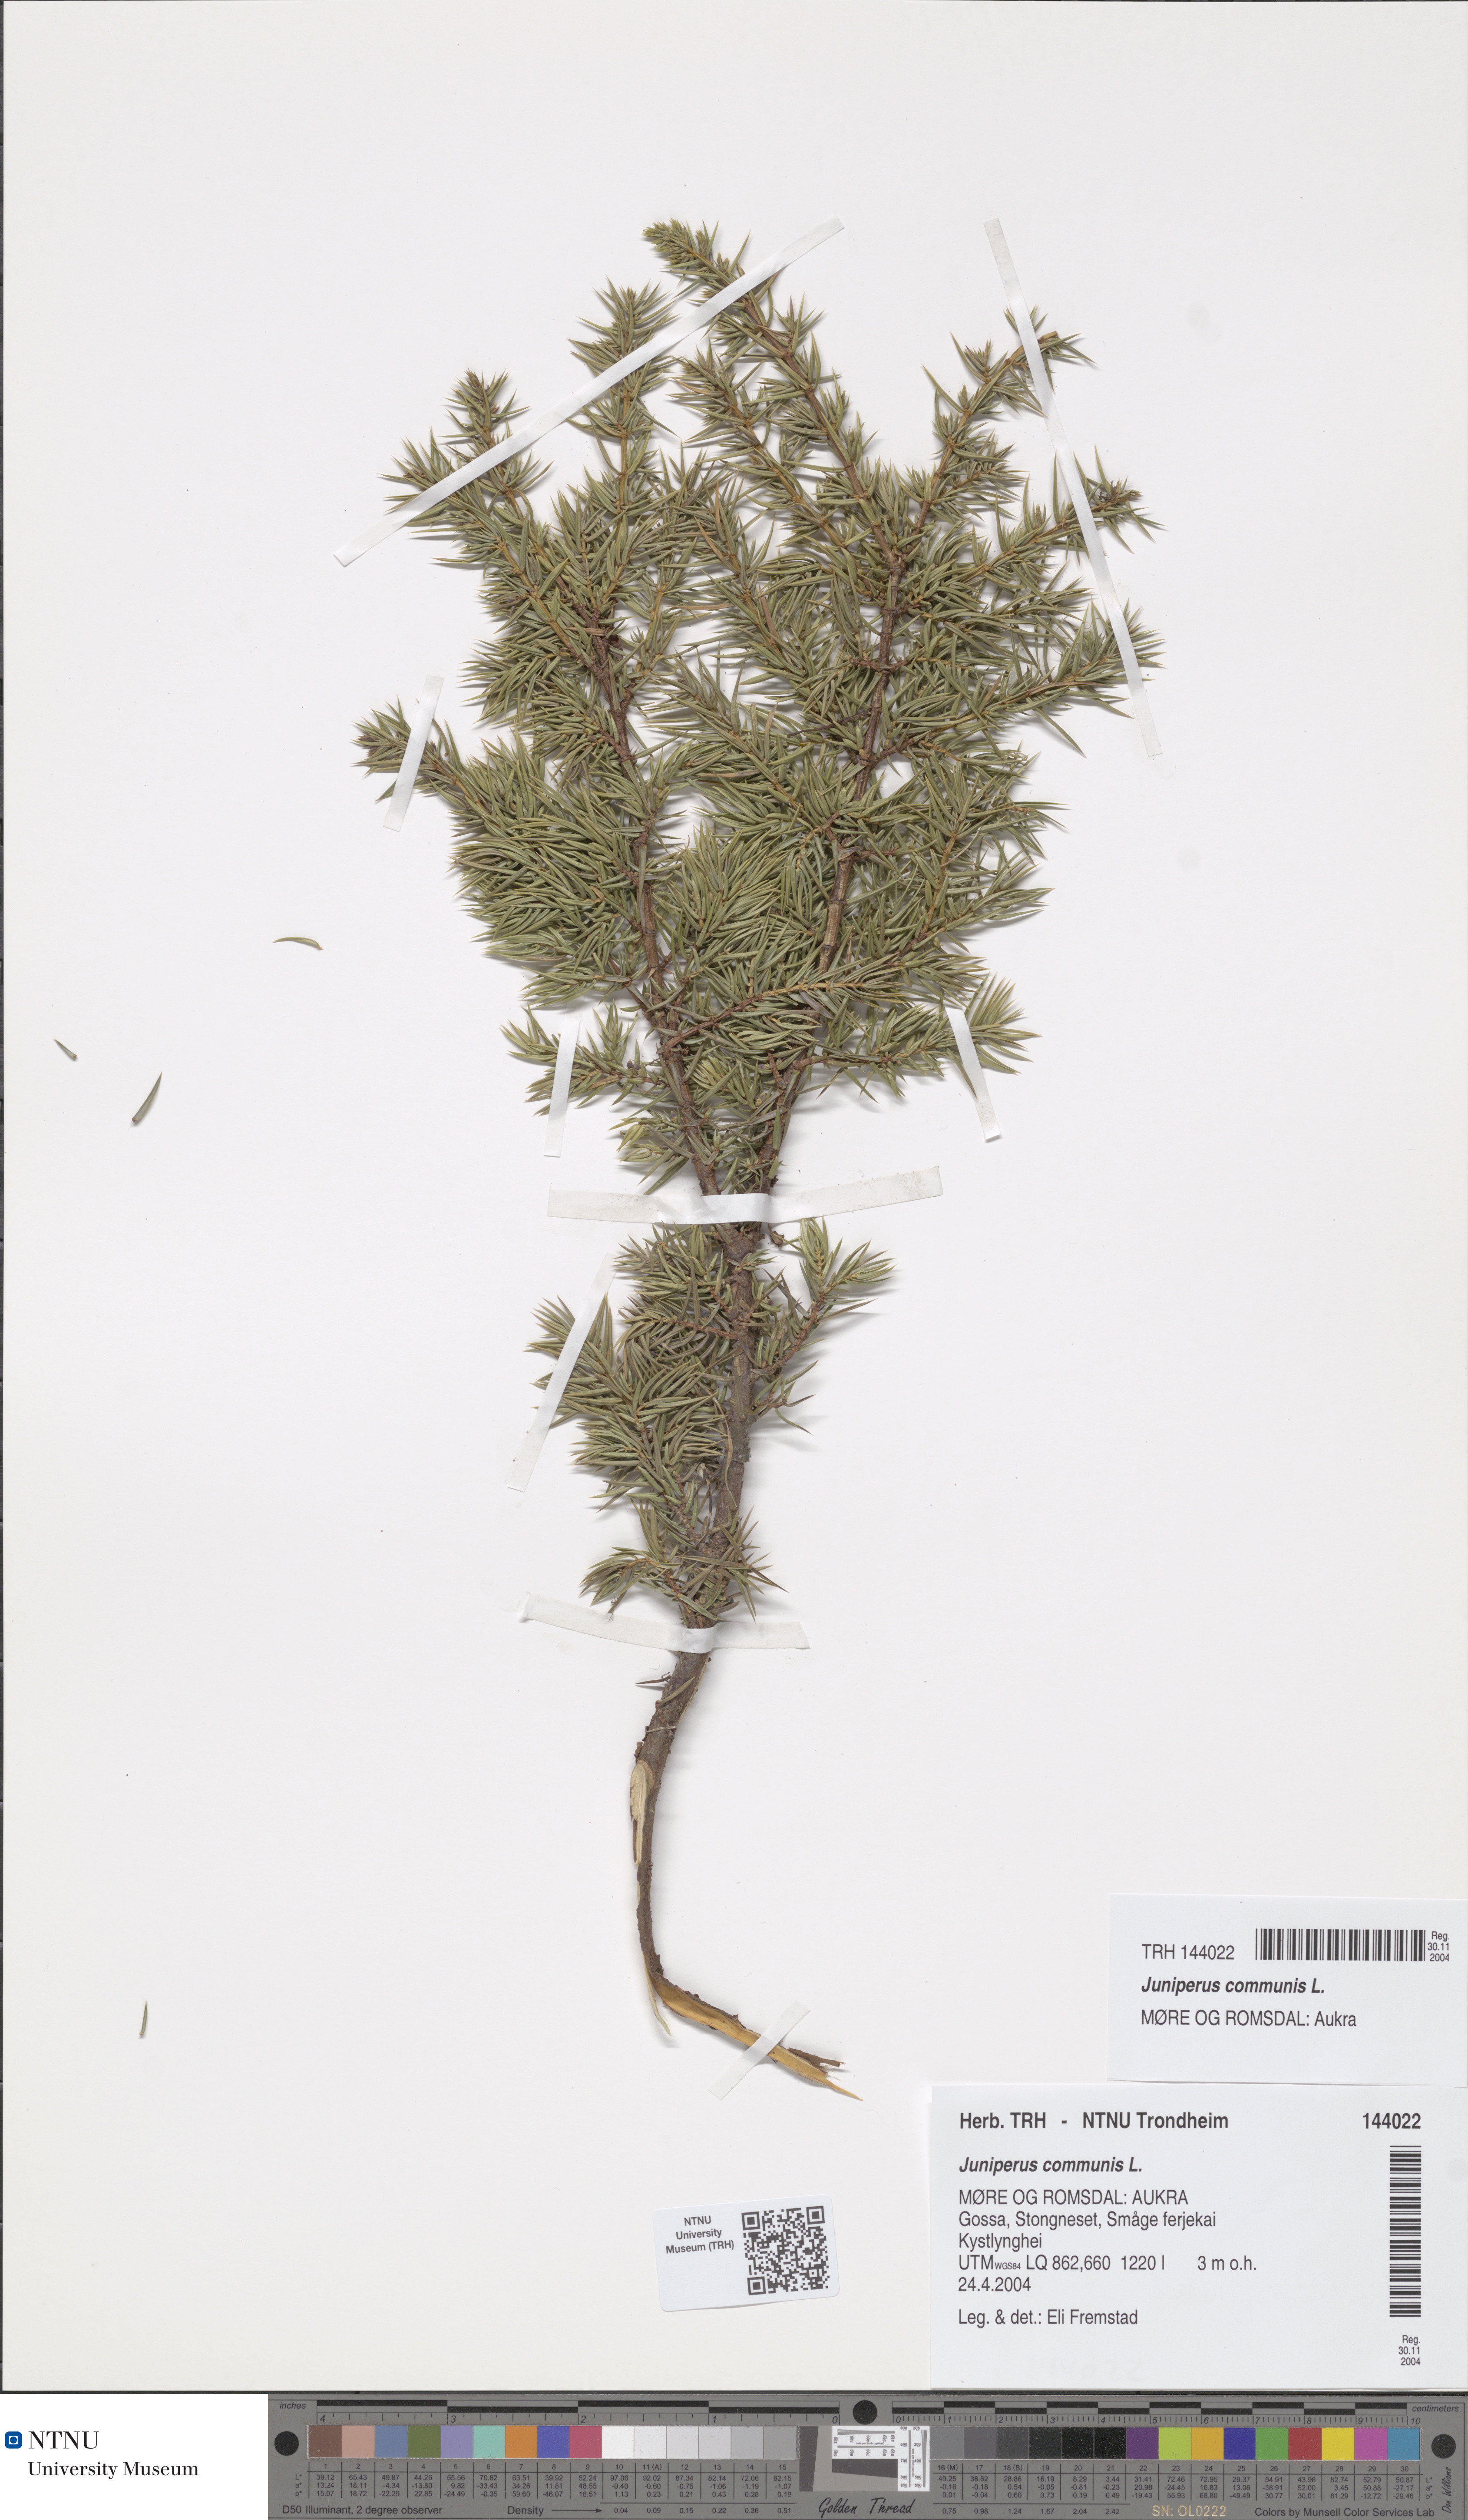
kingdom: Plantae
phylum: Tracheophyta
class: Pinopsida
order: Pinales
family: Cupressaceae
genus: Juniperus
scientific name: Juniperus communis
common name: Common juniper
